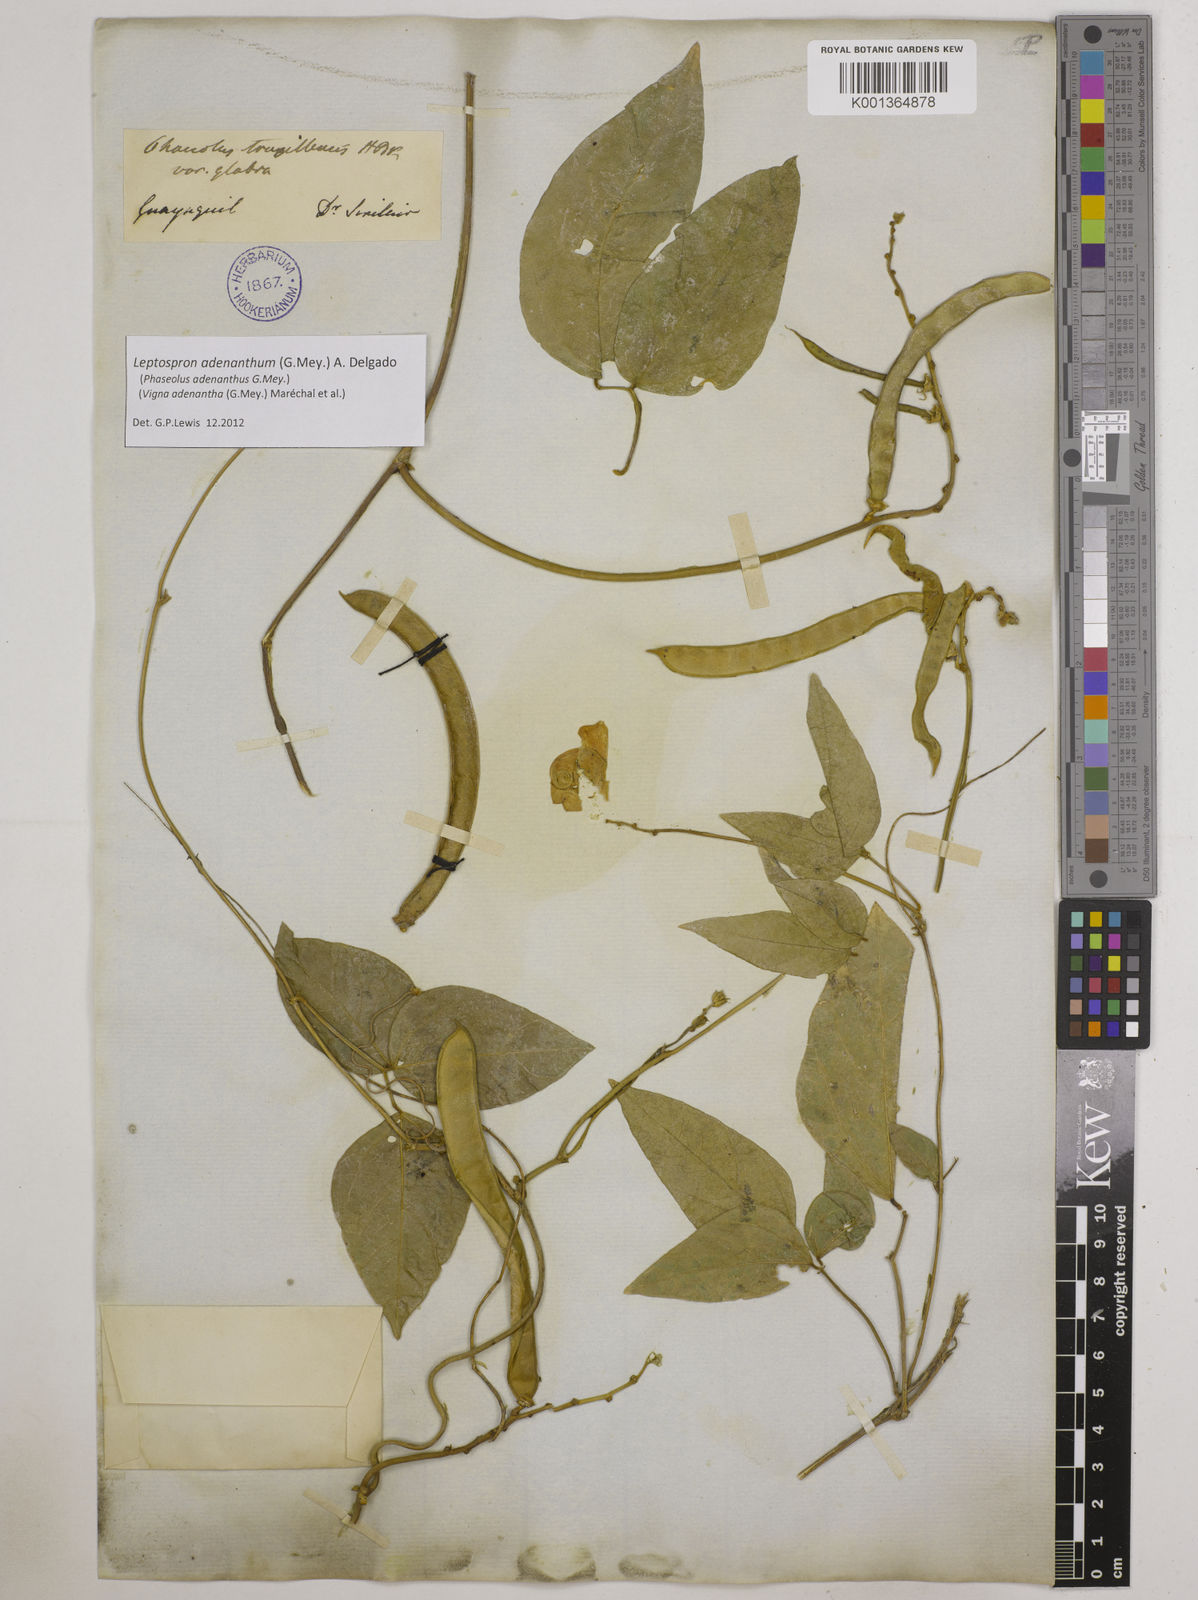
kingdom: Plantae
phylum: Tracheophyta
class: Magnoliopsida
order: Fabales
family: Fabaceae
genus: Leptospron
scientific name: Leptospron adenanthum
